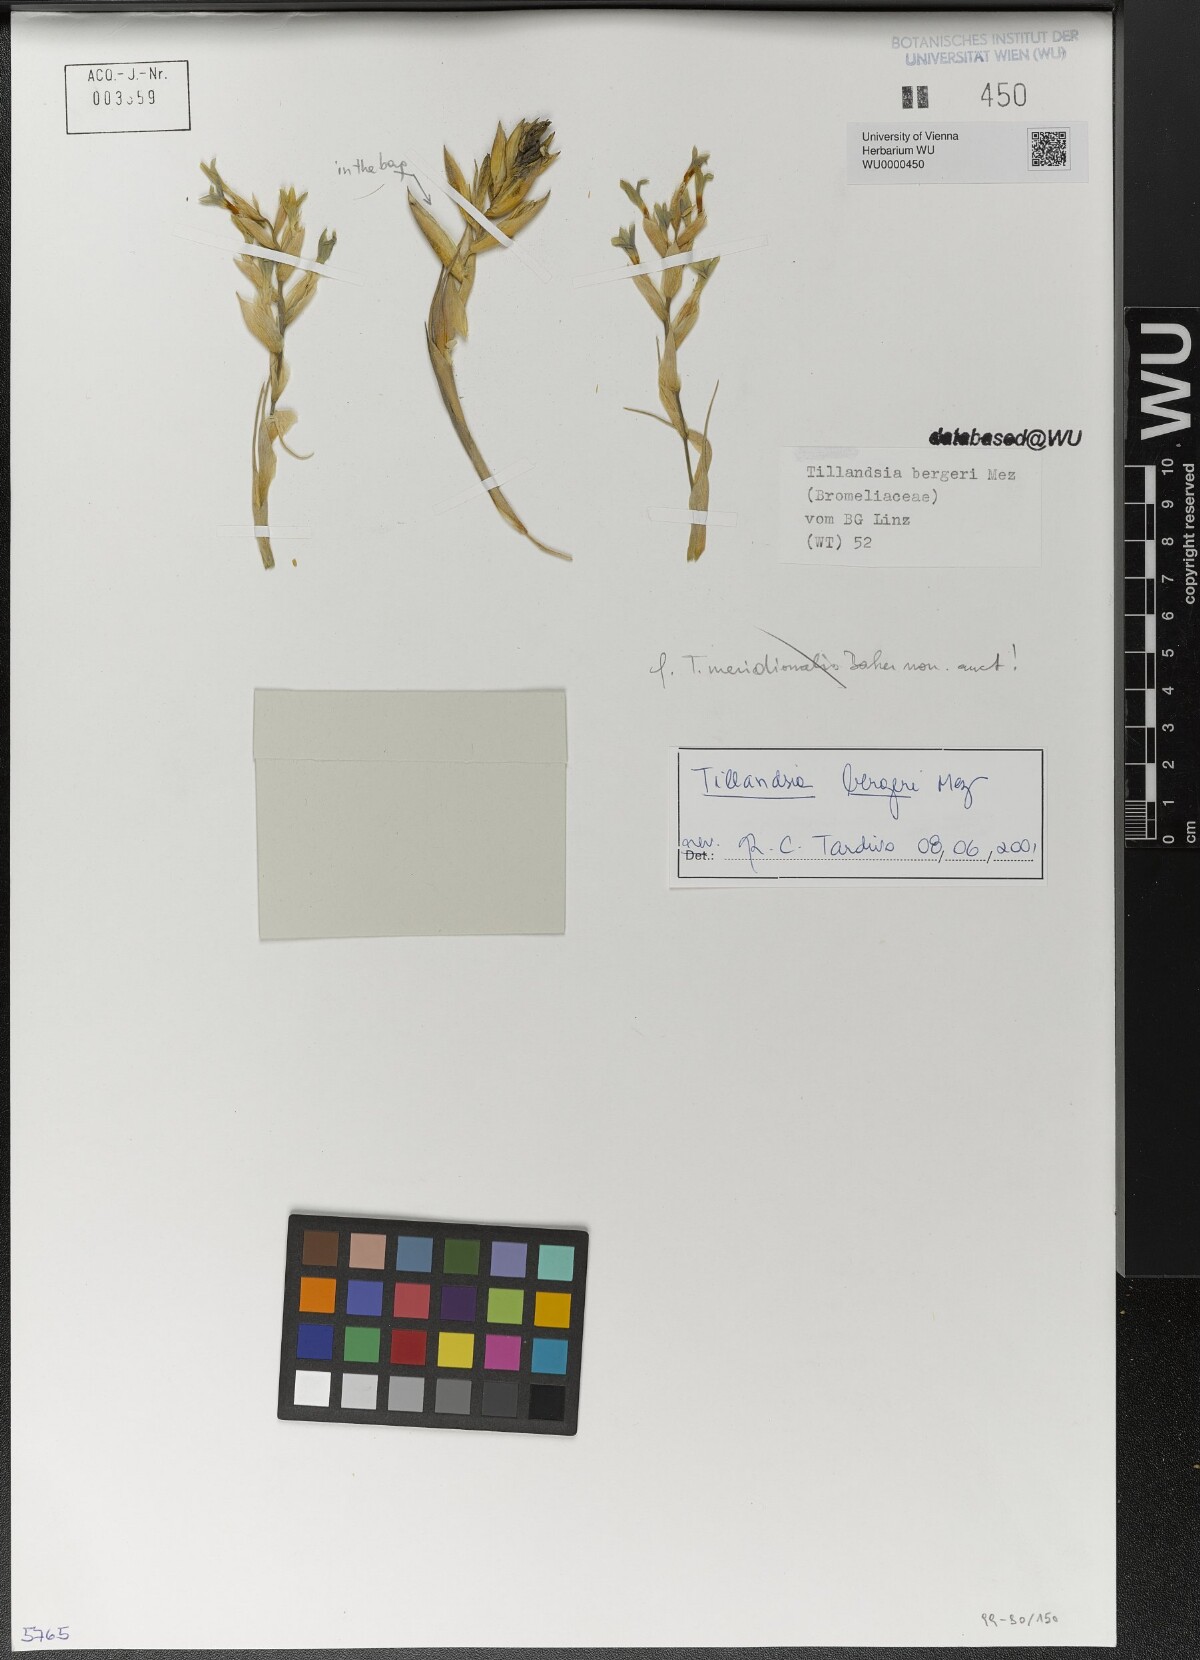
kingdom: Plantae
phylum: Tracheophyta
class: Liliopsida
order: Poales
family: Bromeliaceae
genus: Tillandsia
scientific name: Tillandsia bergeri
